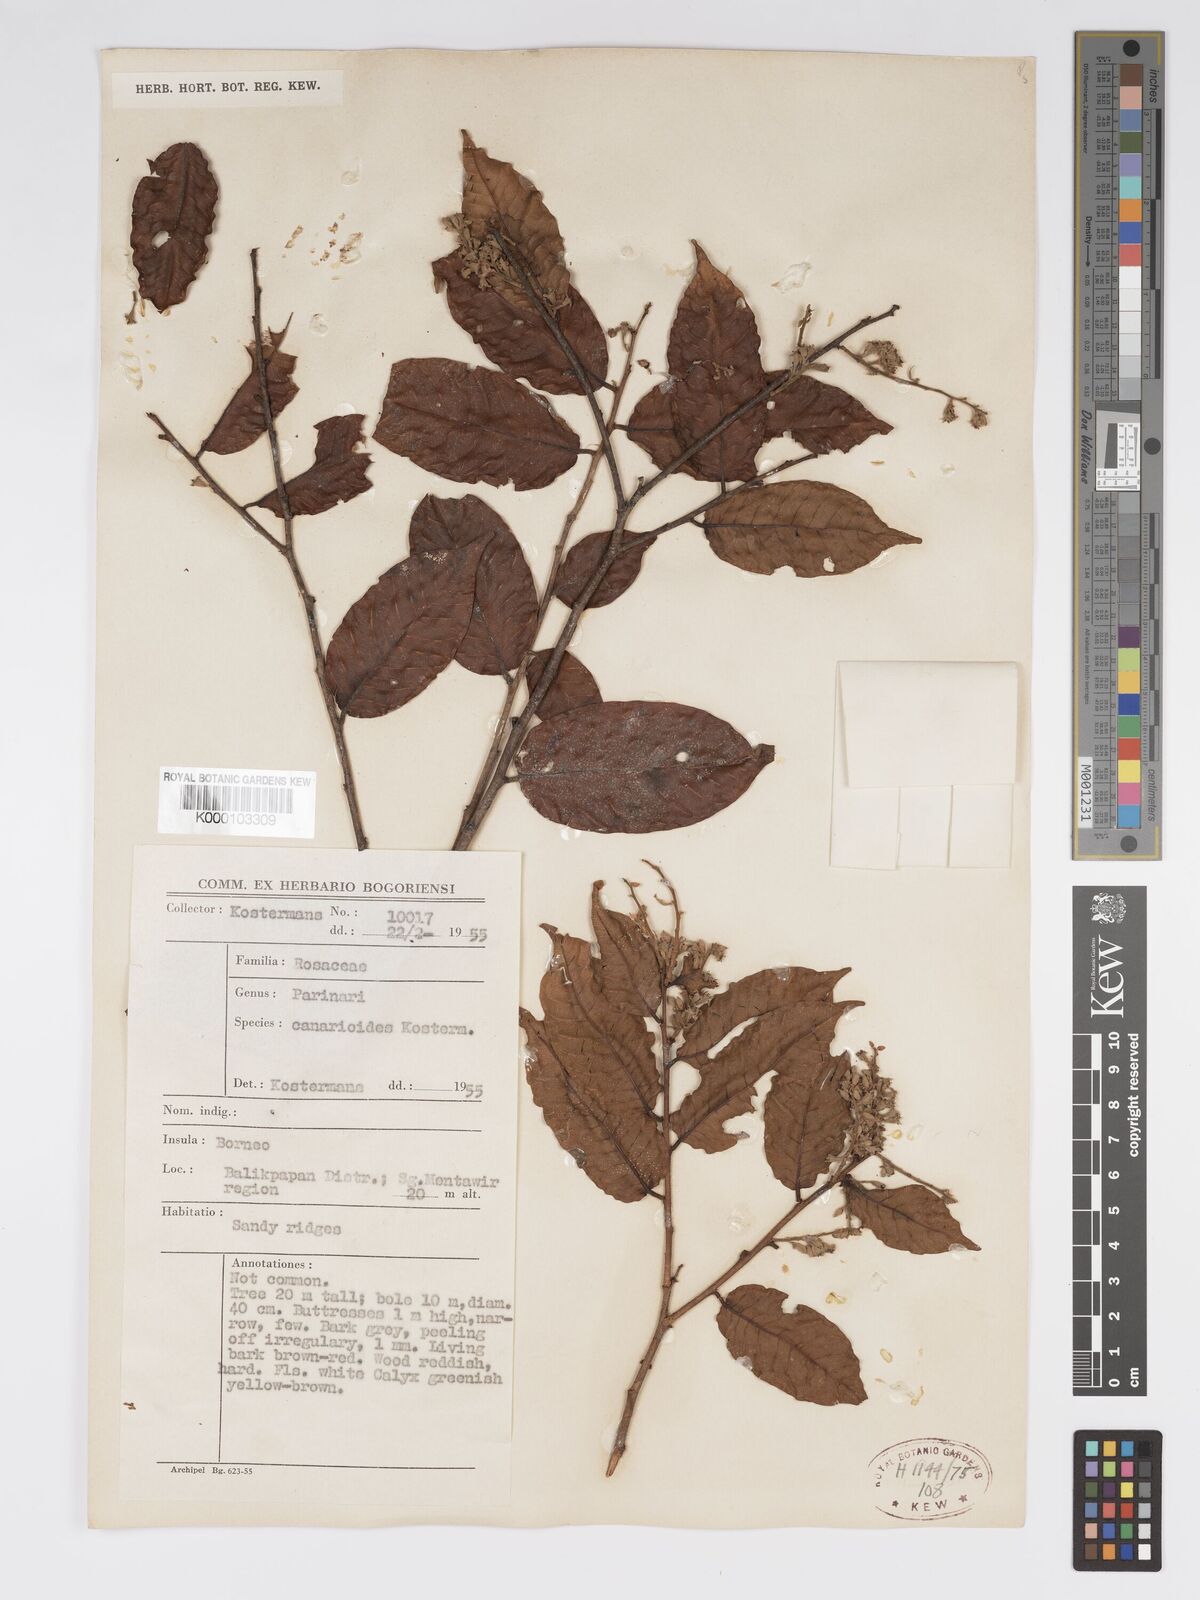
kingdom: Plantae
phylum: Tracheophyta
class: Magnoliopsida
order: Malpighiales
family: Chrysobalanaceae
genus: Parinari
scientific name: Parinari canarioides
